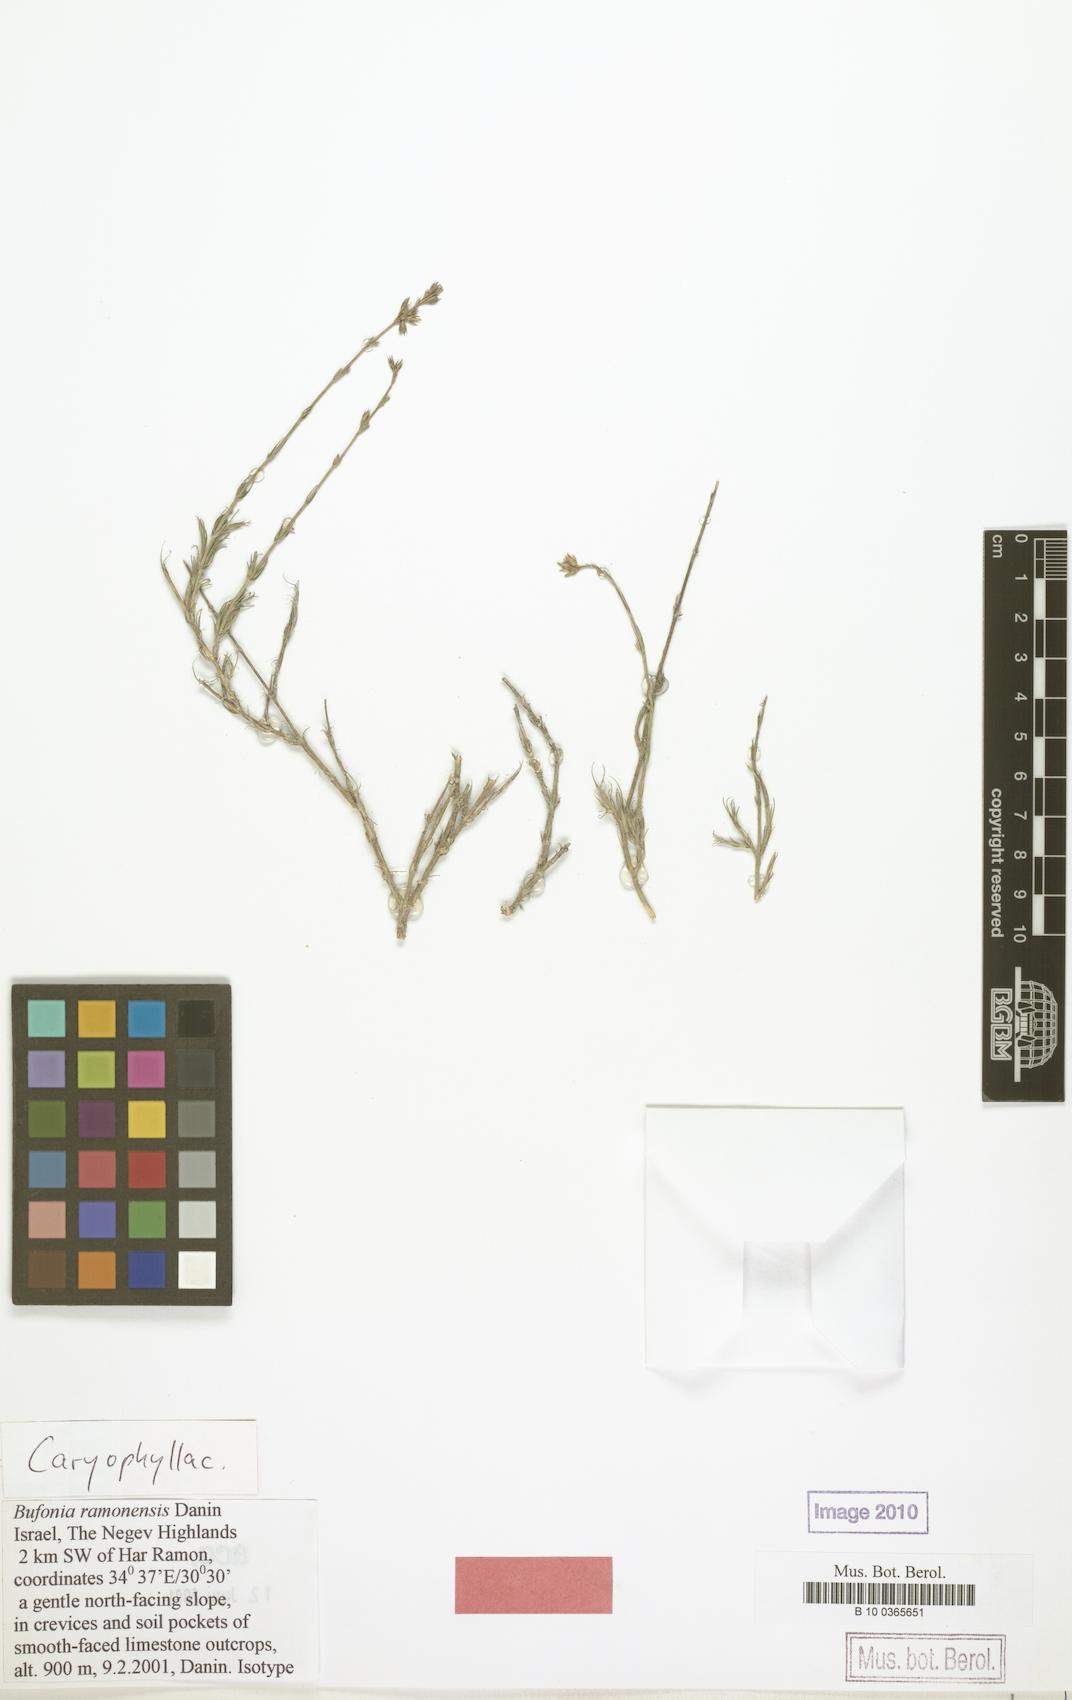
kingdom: Plantae
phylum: Tracheophyta
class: Magnoliopsida
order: Caryophyllales
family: Caryophyllaceae
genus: Bufonia
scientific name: Bufonia ramonensis
